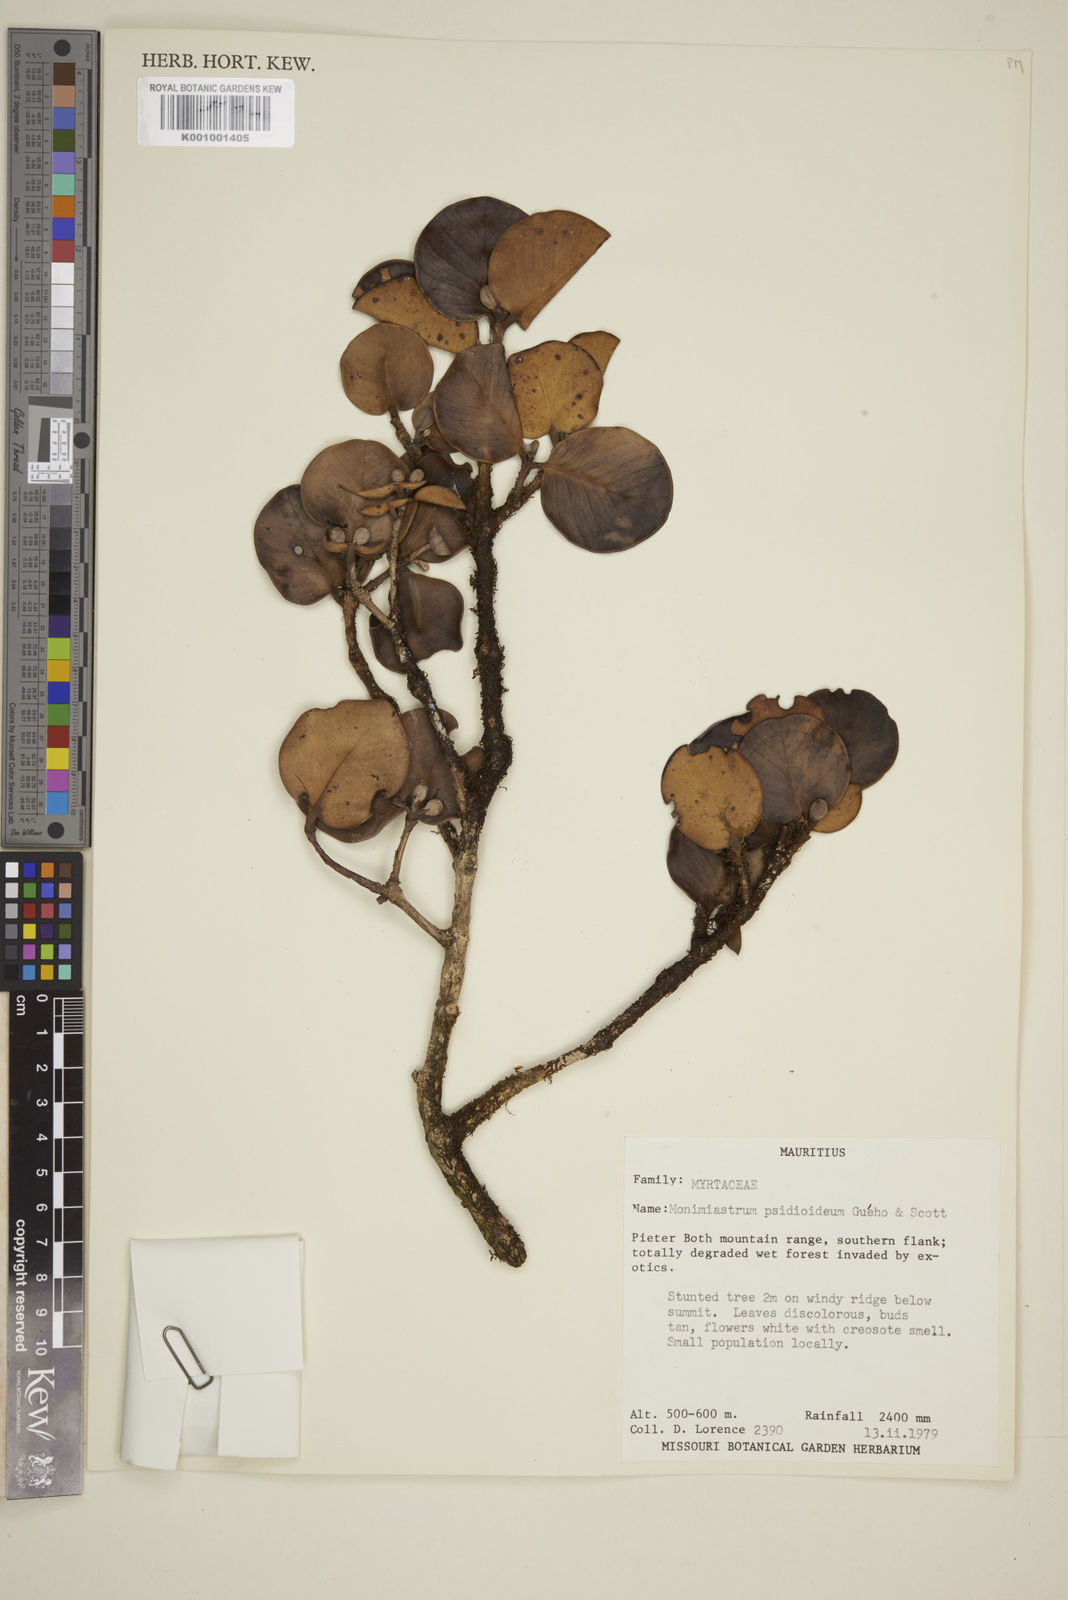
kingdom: Plantae
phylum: Tracheophyta
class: Magnoliopsida
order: Myrtales
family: Myrtaceae
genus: Eugenia
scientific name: Eugenia psidioidea
